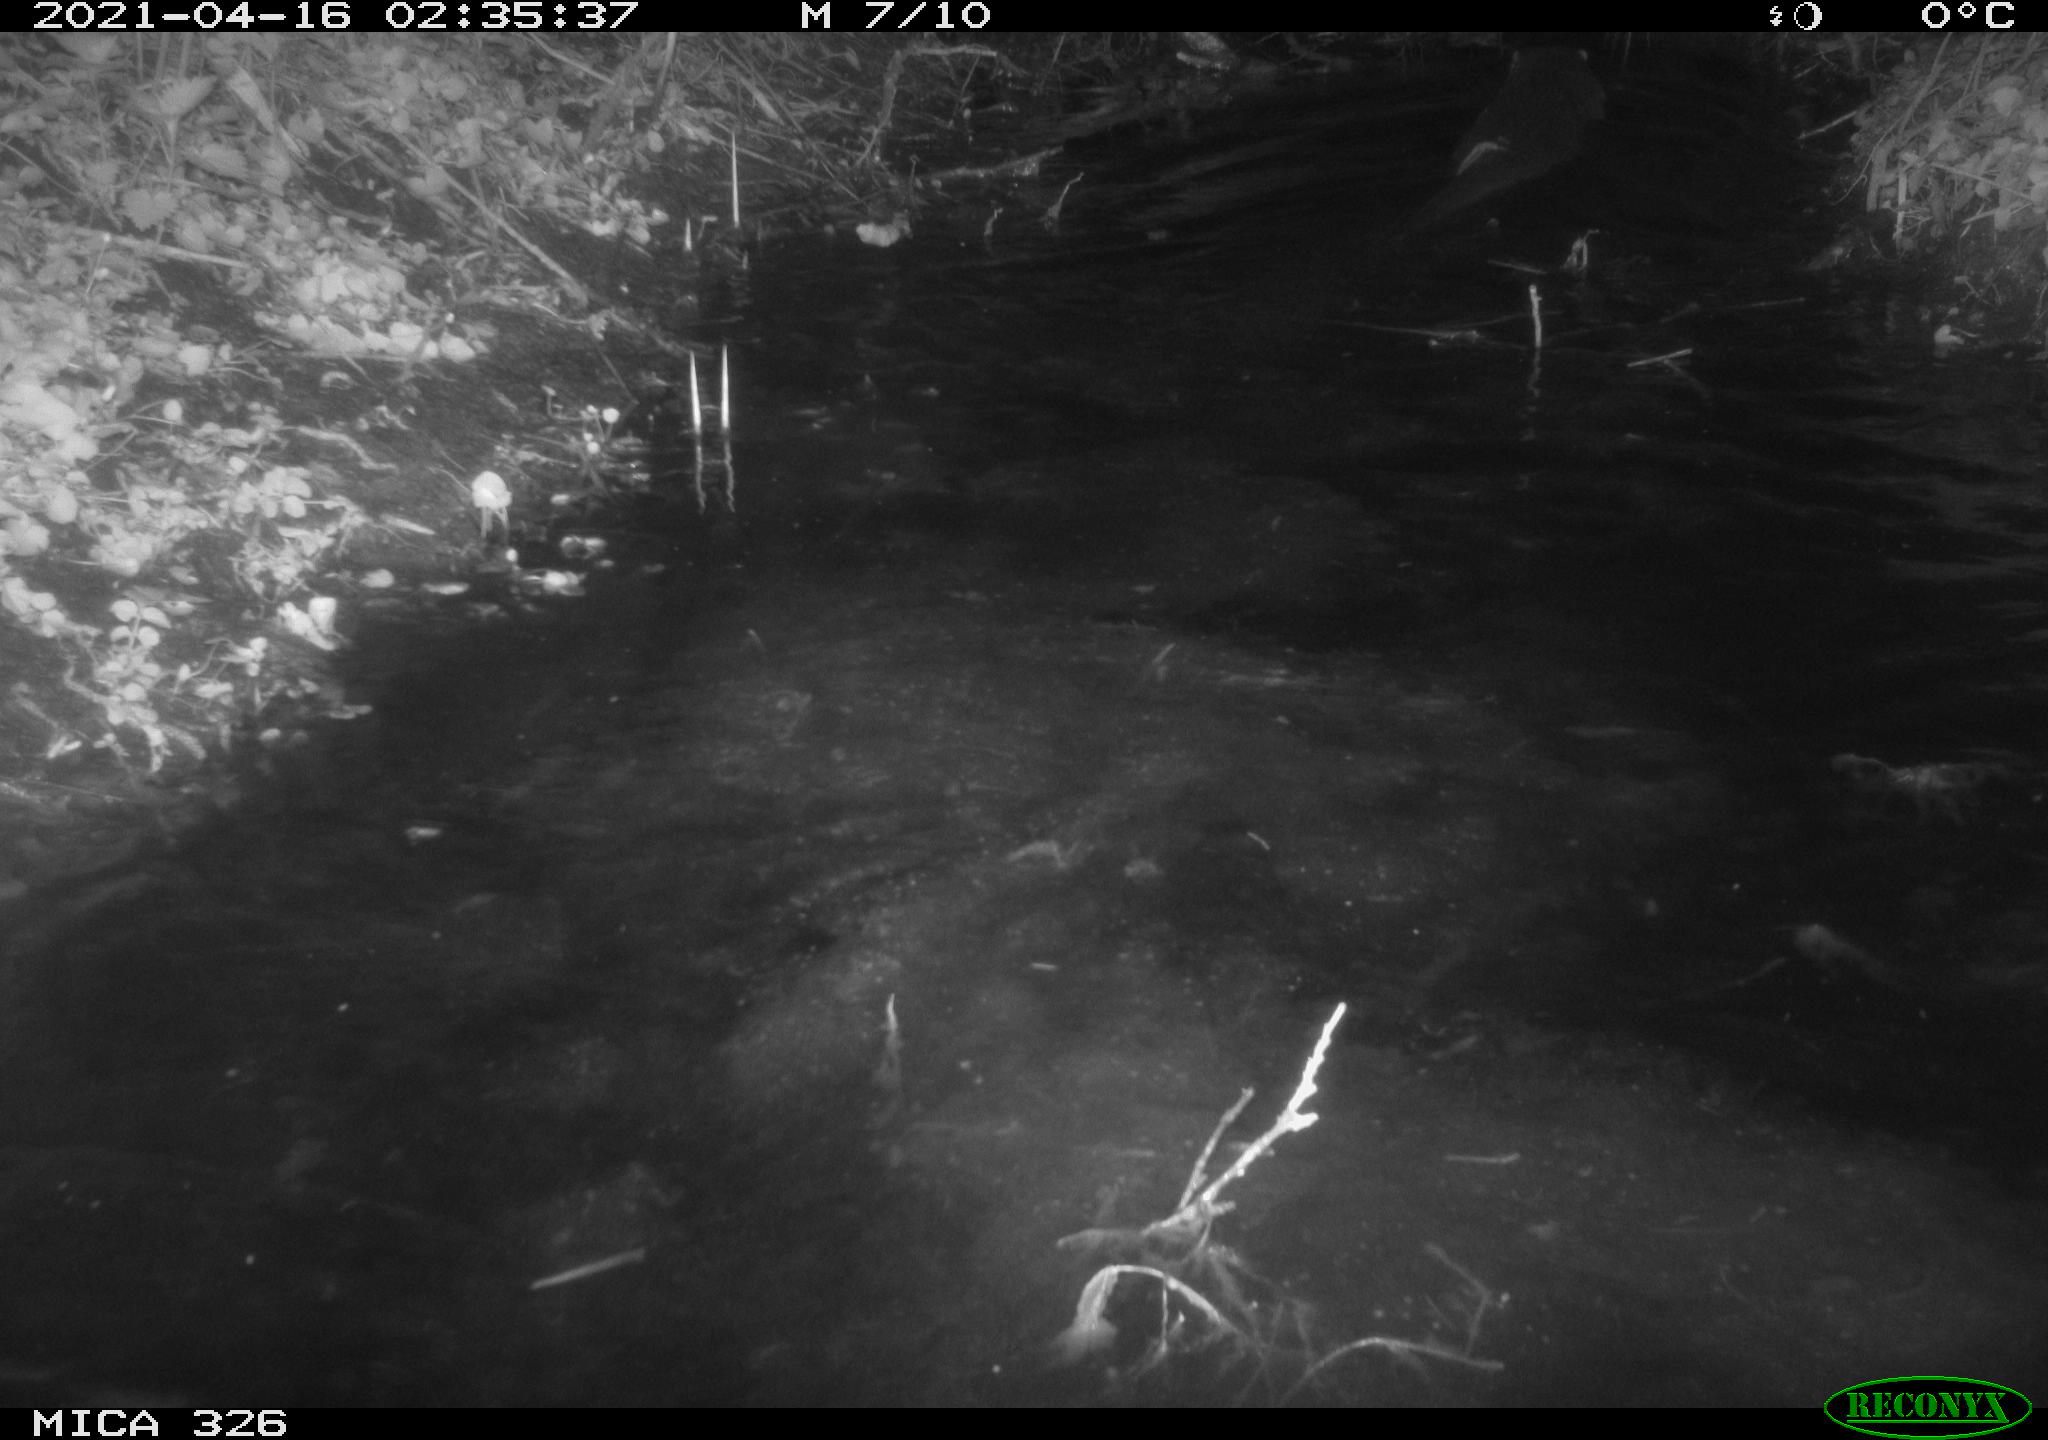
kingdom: Animalia
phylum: Chordata
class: Mammalia
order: Carnivora
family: Mustelidae
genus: Lutra
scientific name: Lutra lutra
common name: European otter
